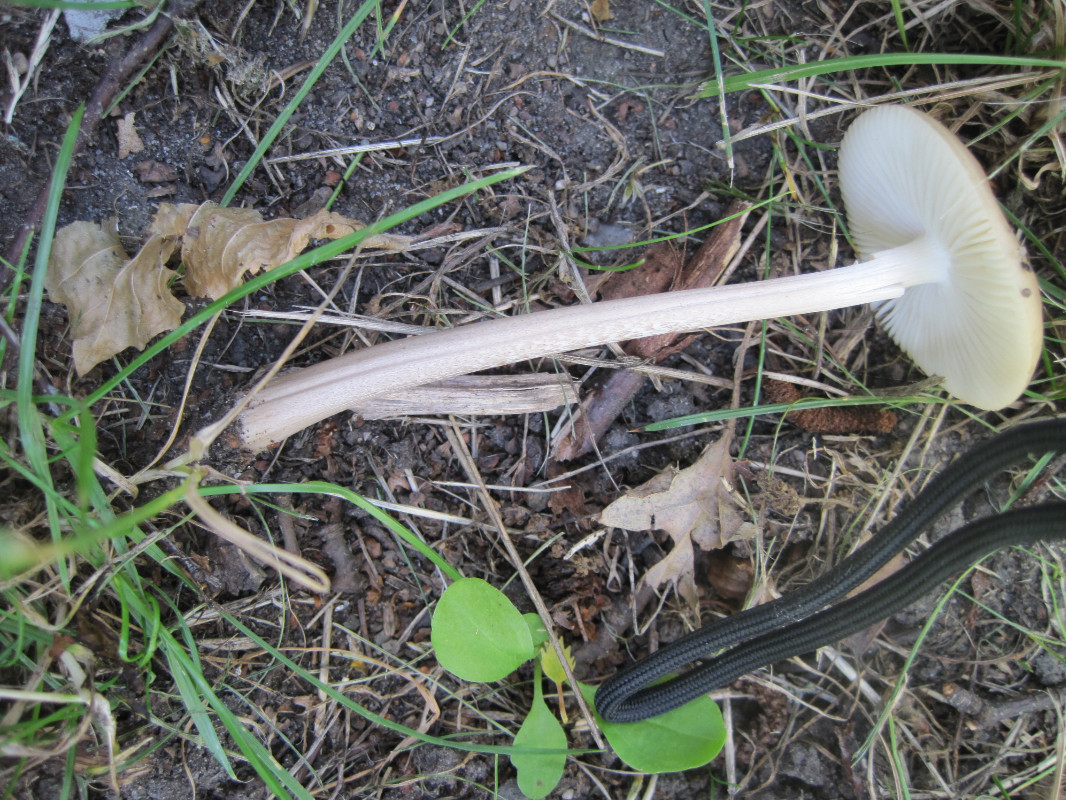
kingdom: Fungi
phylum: Basidiomycota
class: Agaricomycetes
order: Agaricales
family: Physalacriaceae
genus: Hymenopellis
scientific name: Hymenopellis radicata
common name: almindelig pælerodshat
